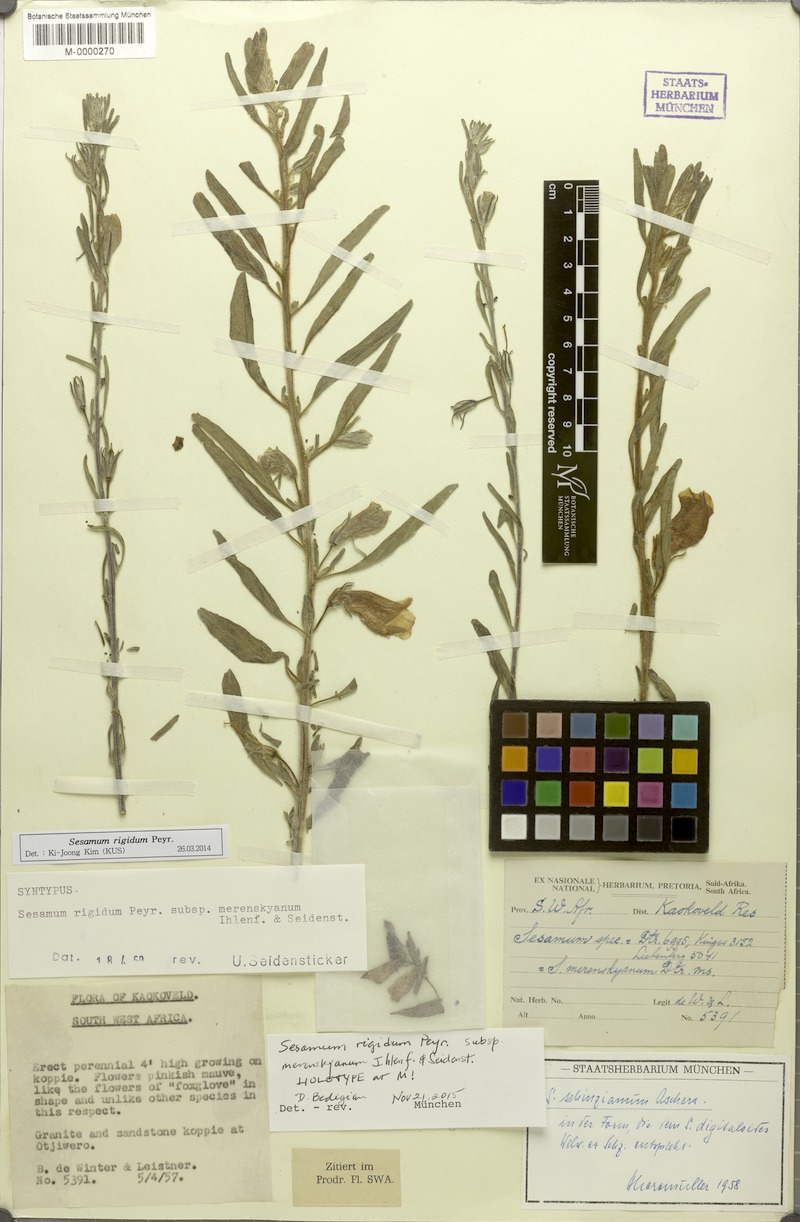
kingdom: Plantae
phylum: Tracheophyta
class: Magnoliopsida
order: Lamiales
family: Pedaliaceae
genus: Sesamum
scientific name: Sesamum rigidum
